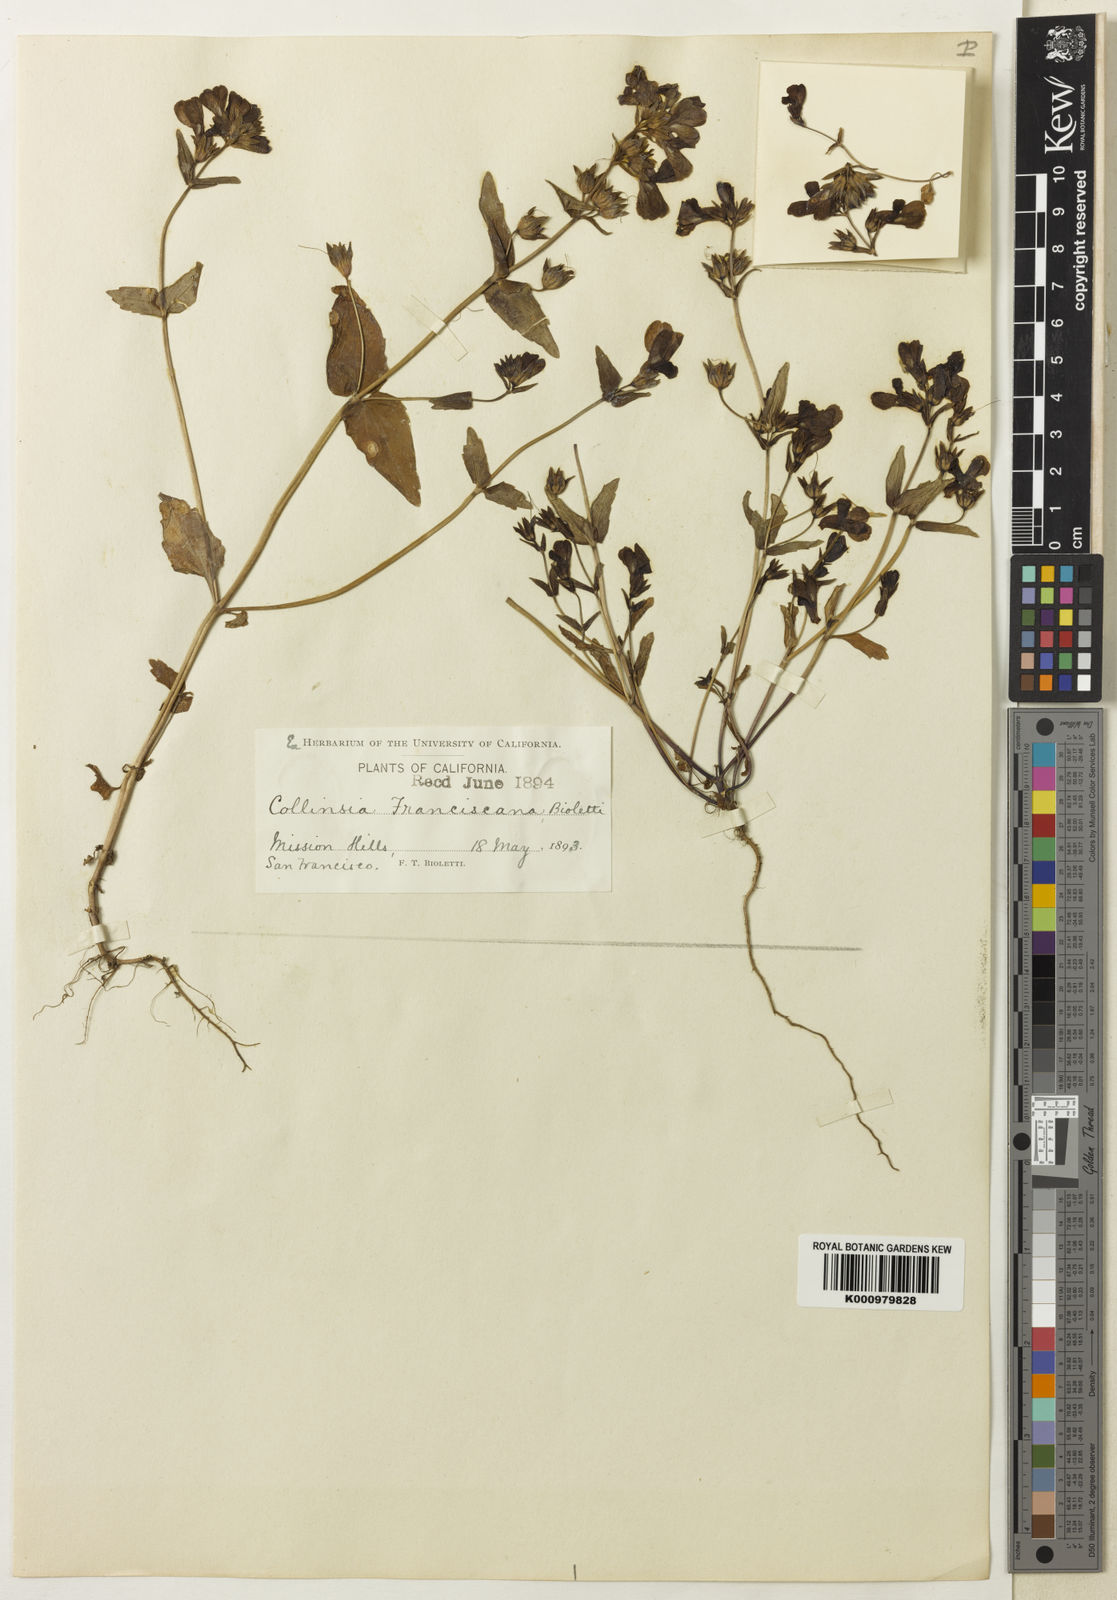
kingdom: Plantae
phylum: Tracheophyta
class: Magnoliopsida
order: Lamiales
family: Plantaginaceae
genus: Collinsia
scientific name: Collinsia multicolor
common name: San francisco collinsia
